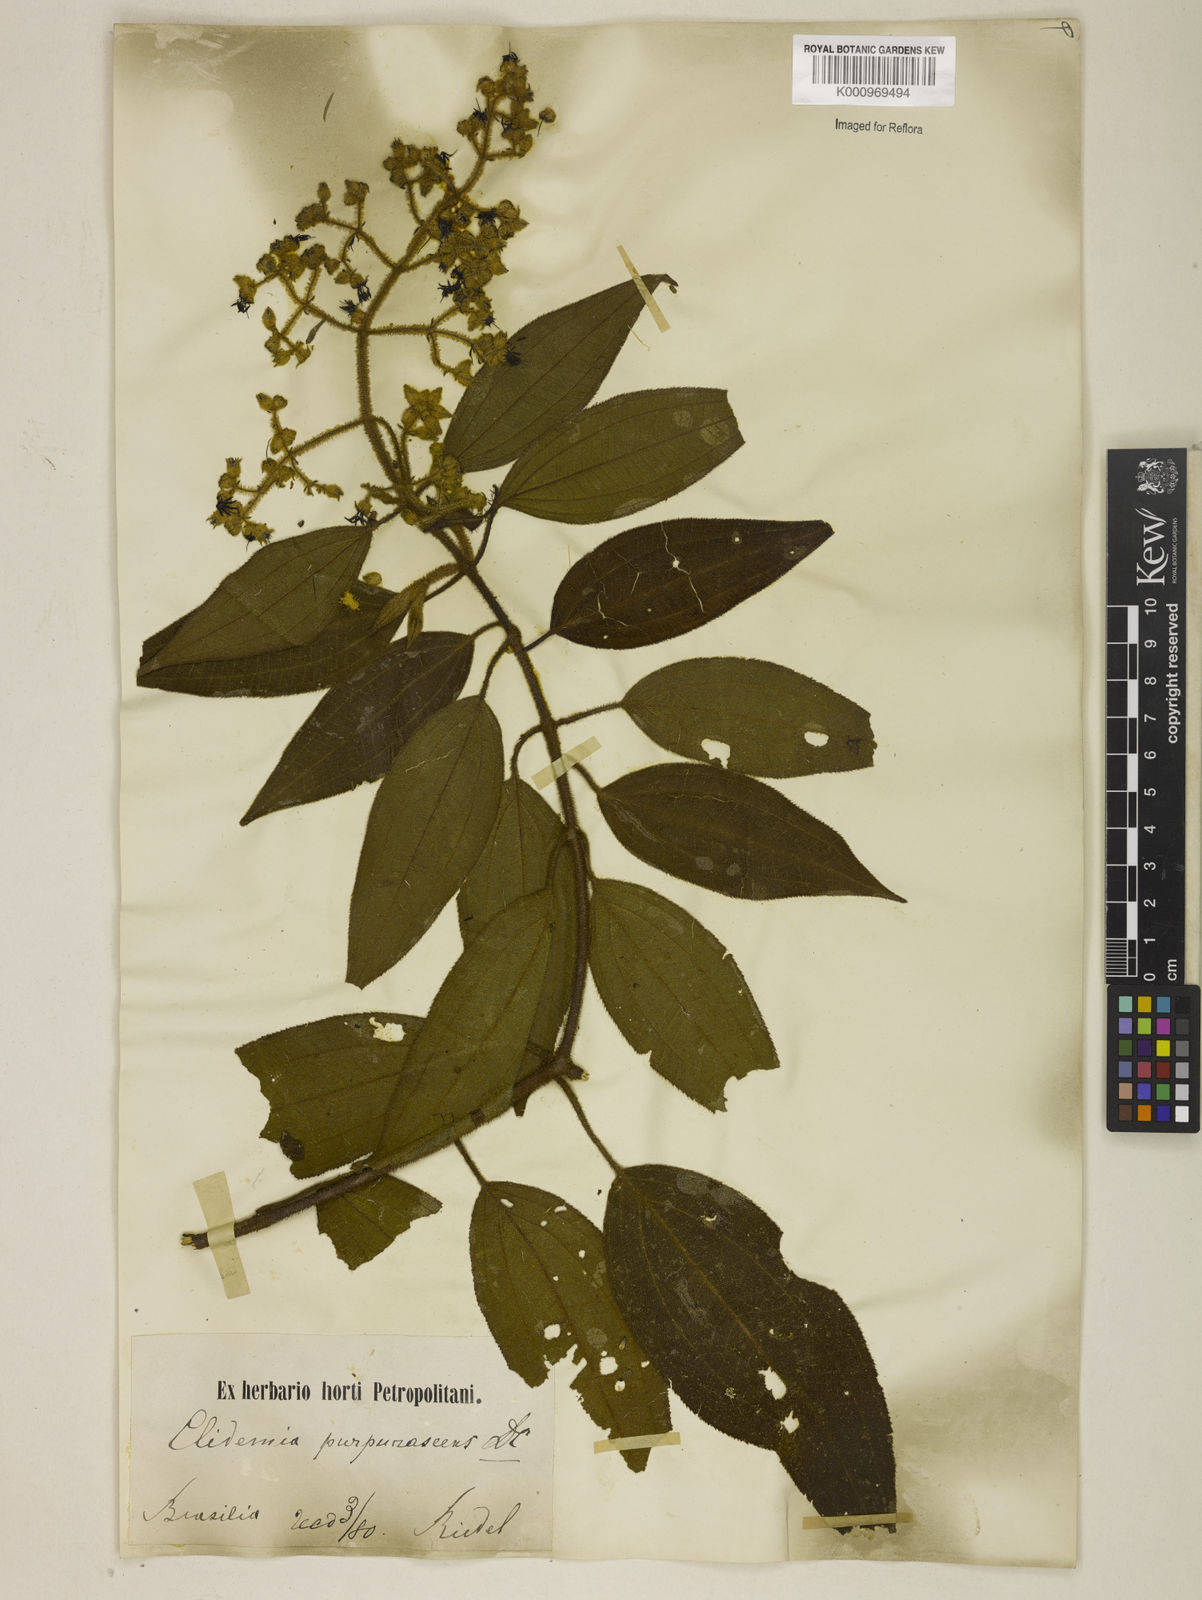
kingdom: Plantae
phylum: Tracheophyta
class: Magnoliopsida
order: Myrtales
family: Melastomataceae
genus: Miconia
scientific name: Miconia microstachya
